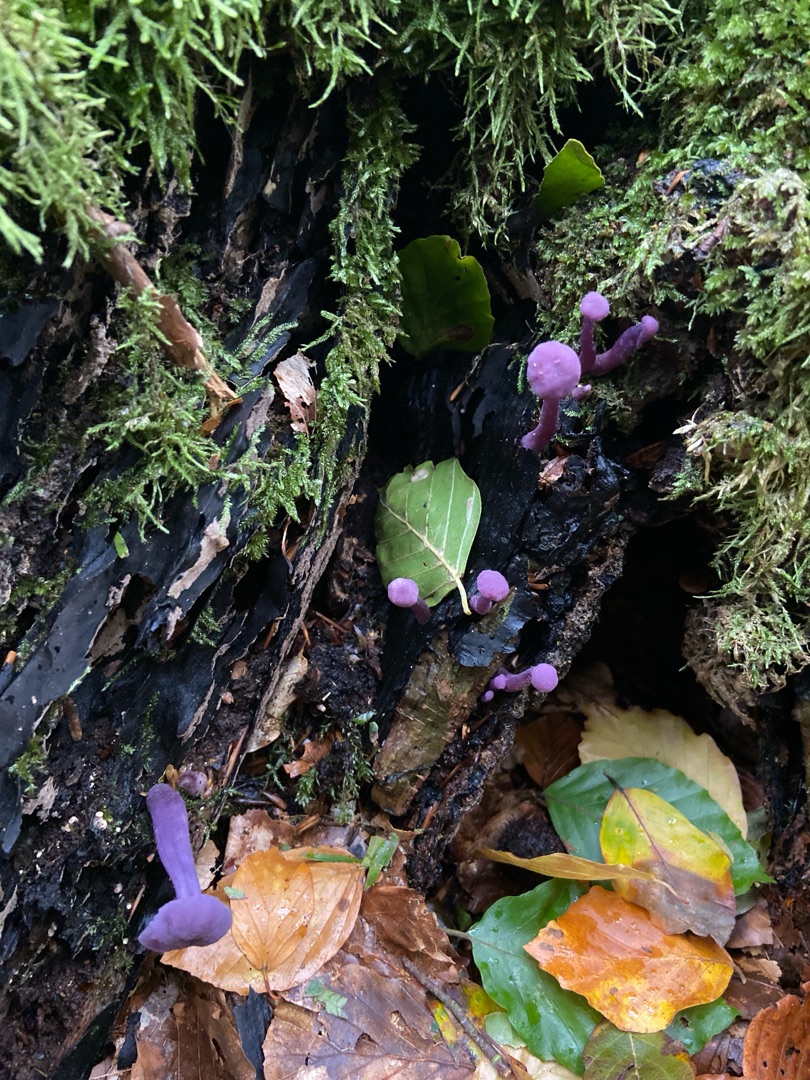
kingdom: Fungi
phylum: Basidiomycota
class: Agaricomycetes
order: Agaricales
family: Hydnangiaceae
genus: Laccaria
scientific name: Laccaria amethystina
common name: Violet ametysthat
